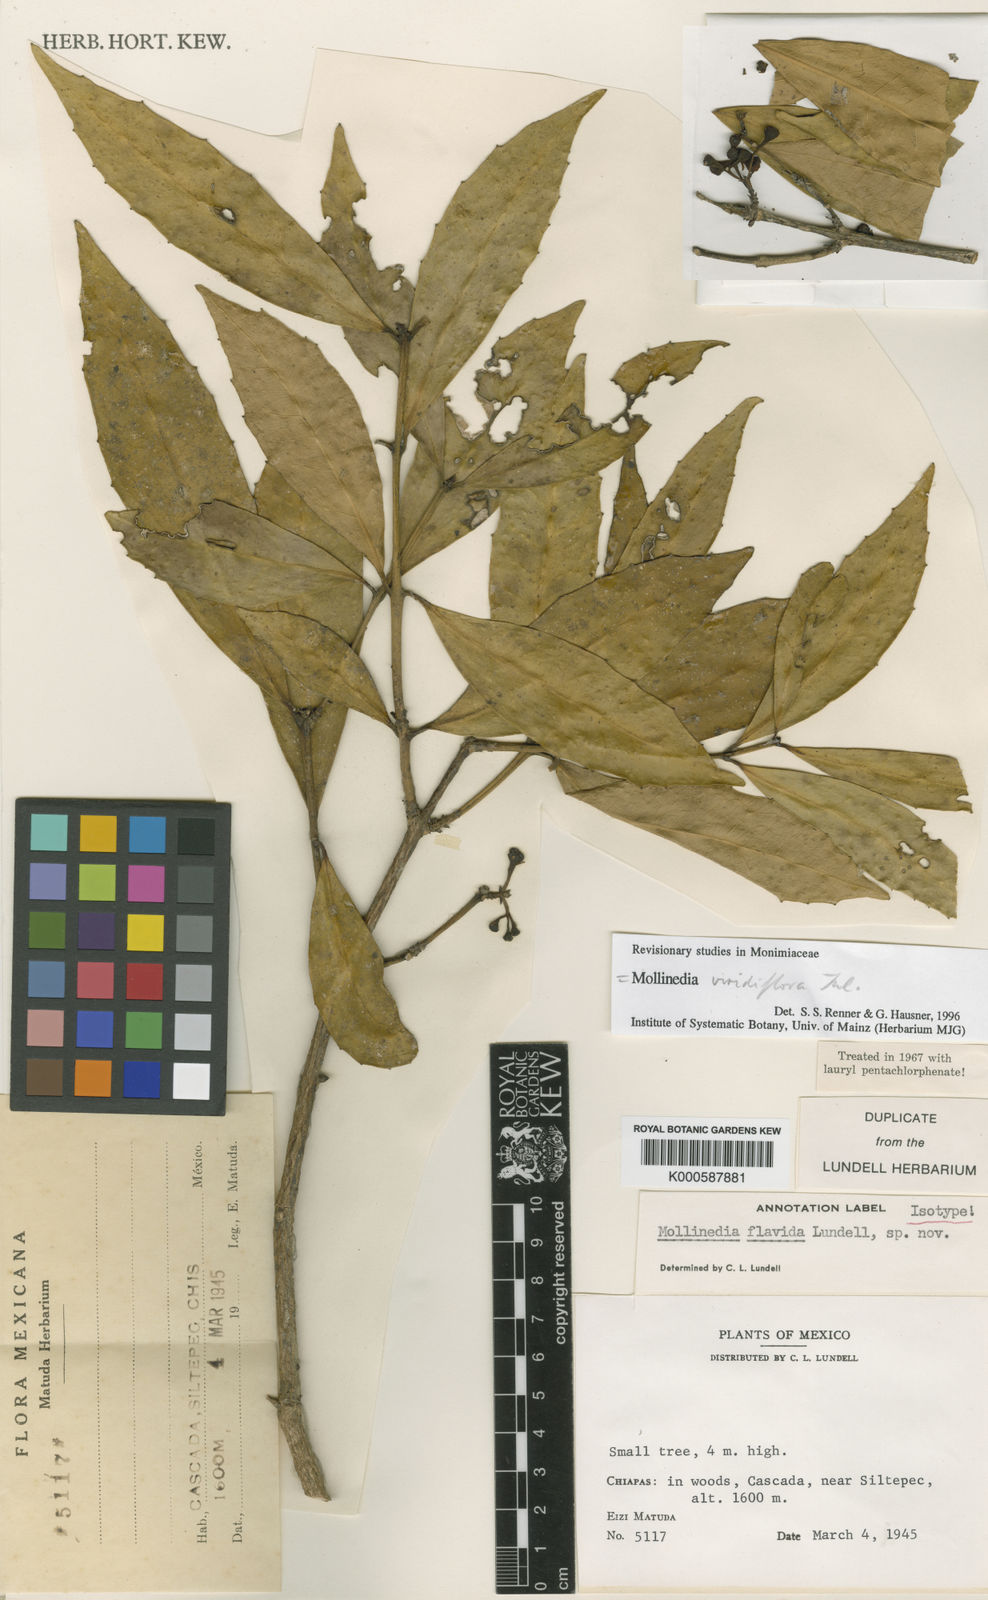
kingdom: Plantae
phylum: Tracheophyta
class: Magnoliopsida
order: Laurales
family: Monimiaceae
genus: Mollinedia
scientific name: Mollinedia pallida
